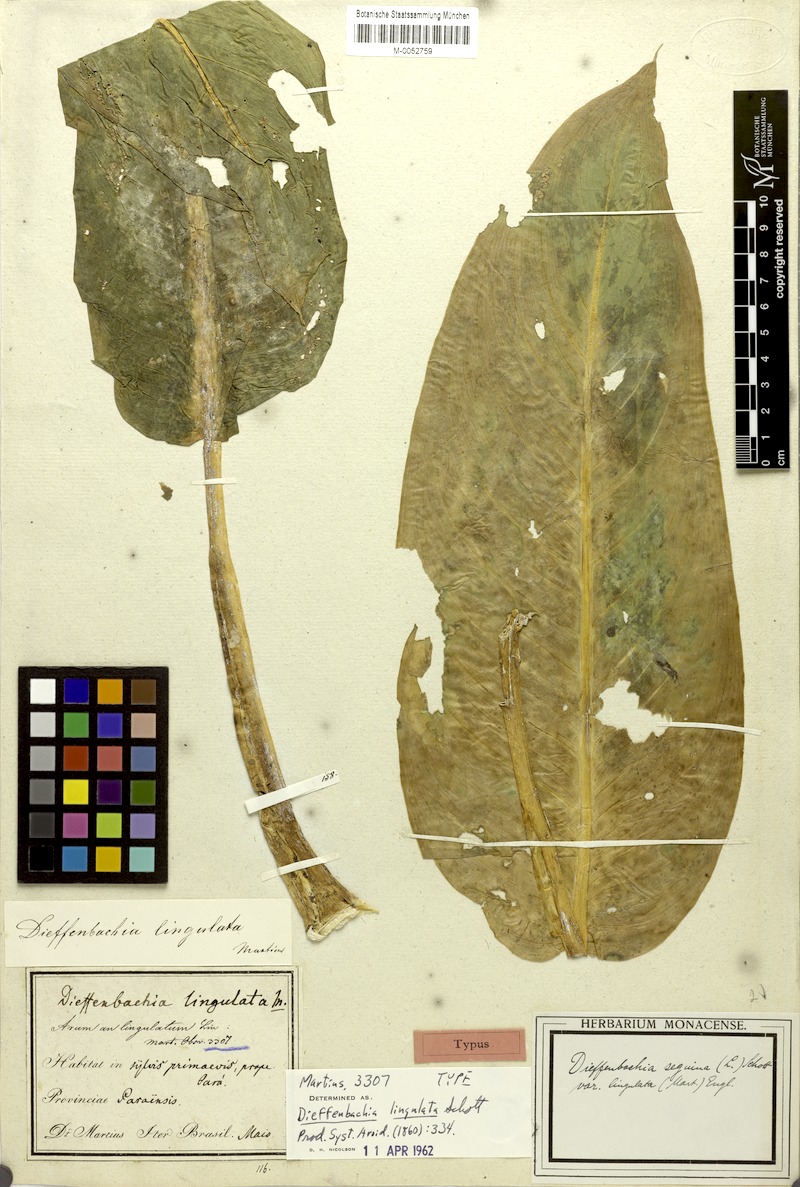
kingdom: Plantae
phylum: Tracheophyta
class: Liliopsida
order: Alismatales
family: Araceae
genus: Dieffenbachia
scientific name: Dieffenbachia seguine
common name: Dumbcane
